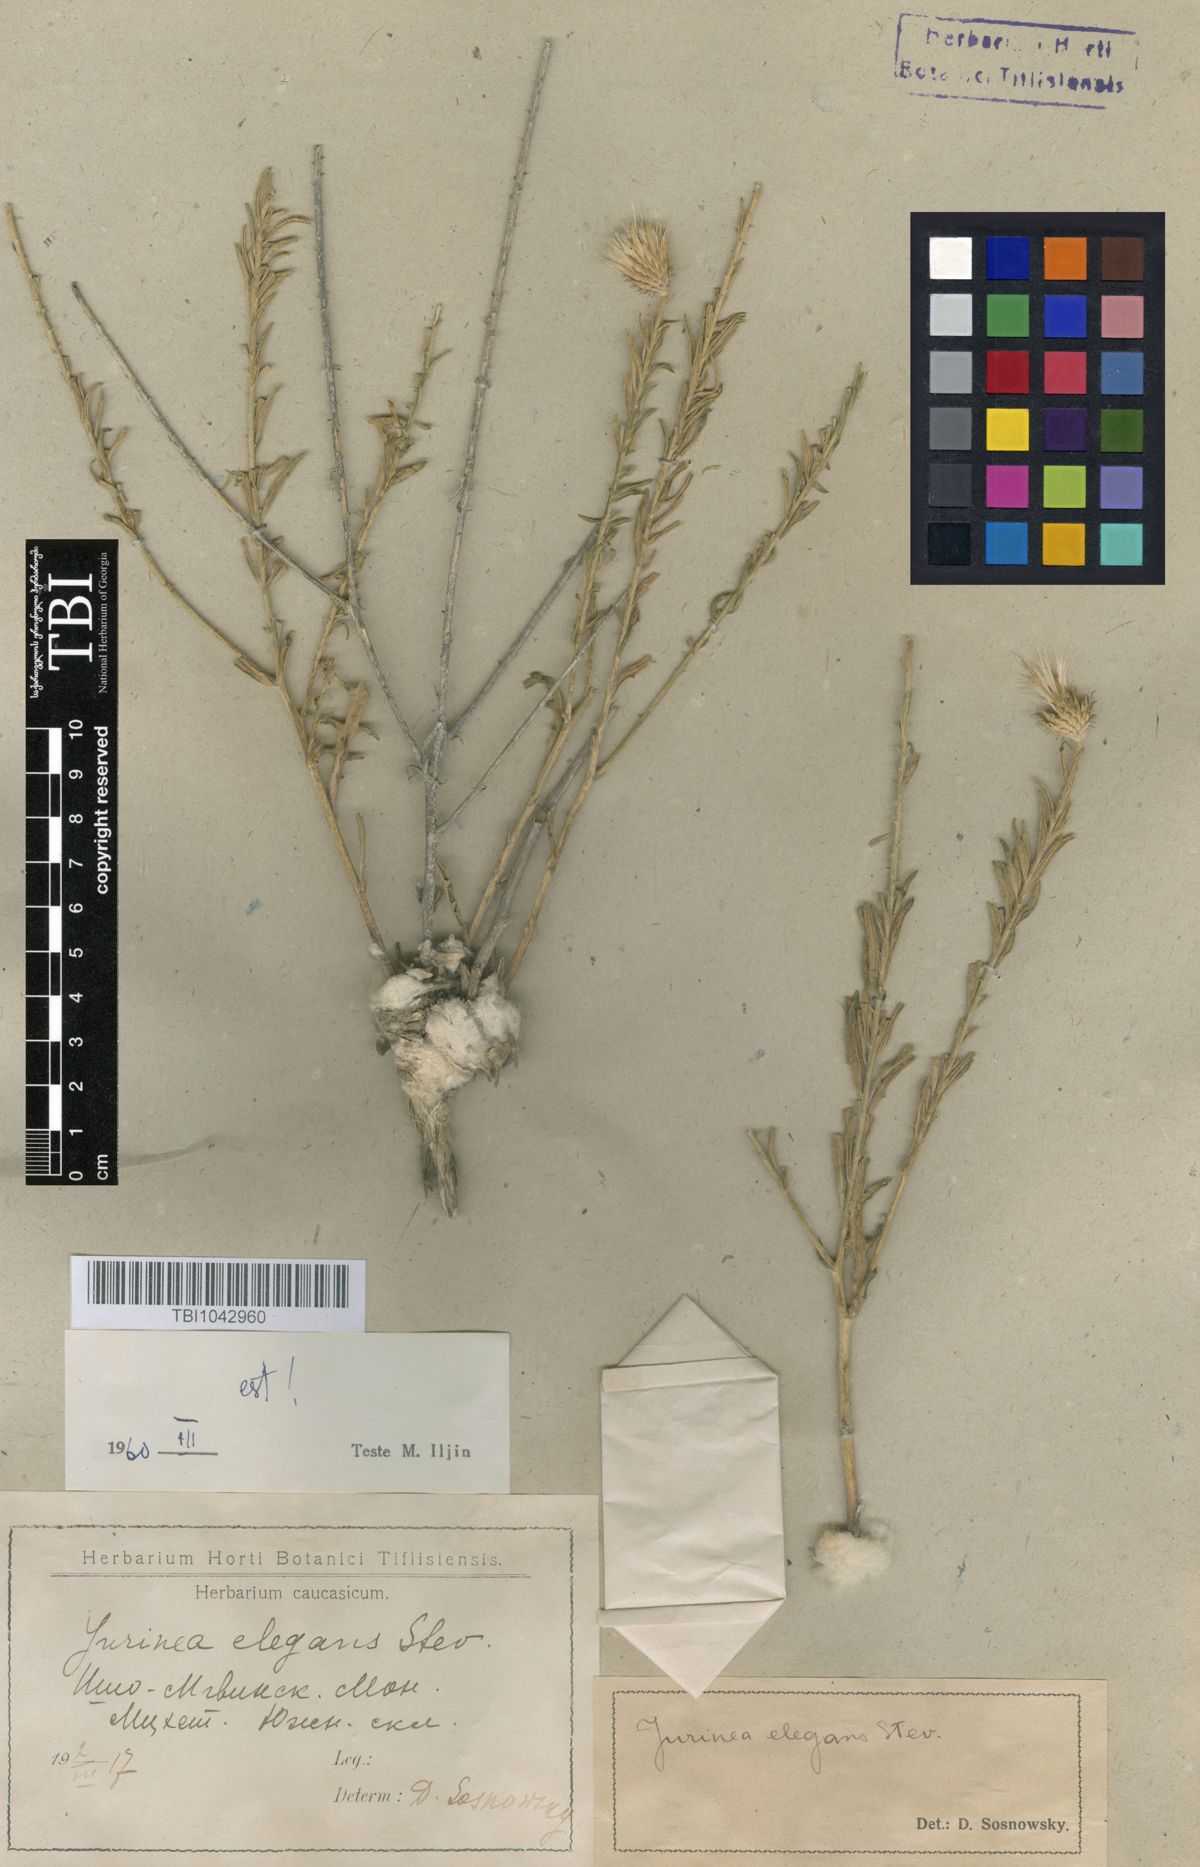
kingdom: Plantae
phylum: Tracheophyta
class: Magnoliopsida
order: Asterales
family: Asteraceae
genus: Jurinea
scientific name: Jurinea elegans
